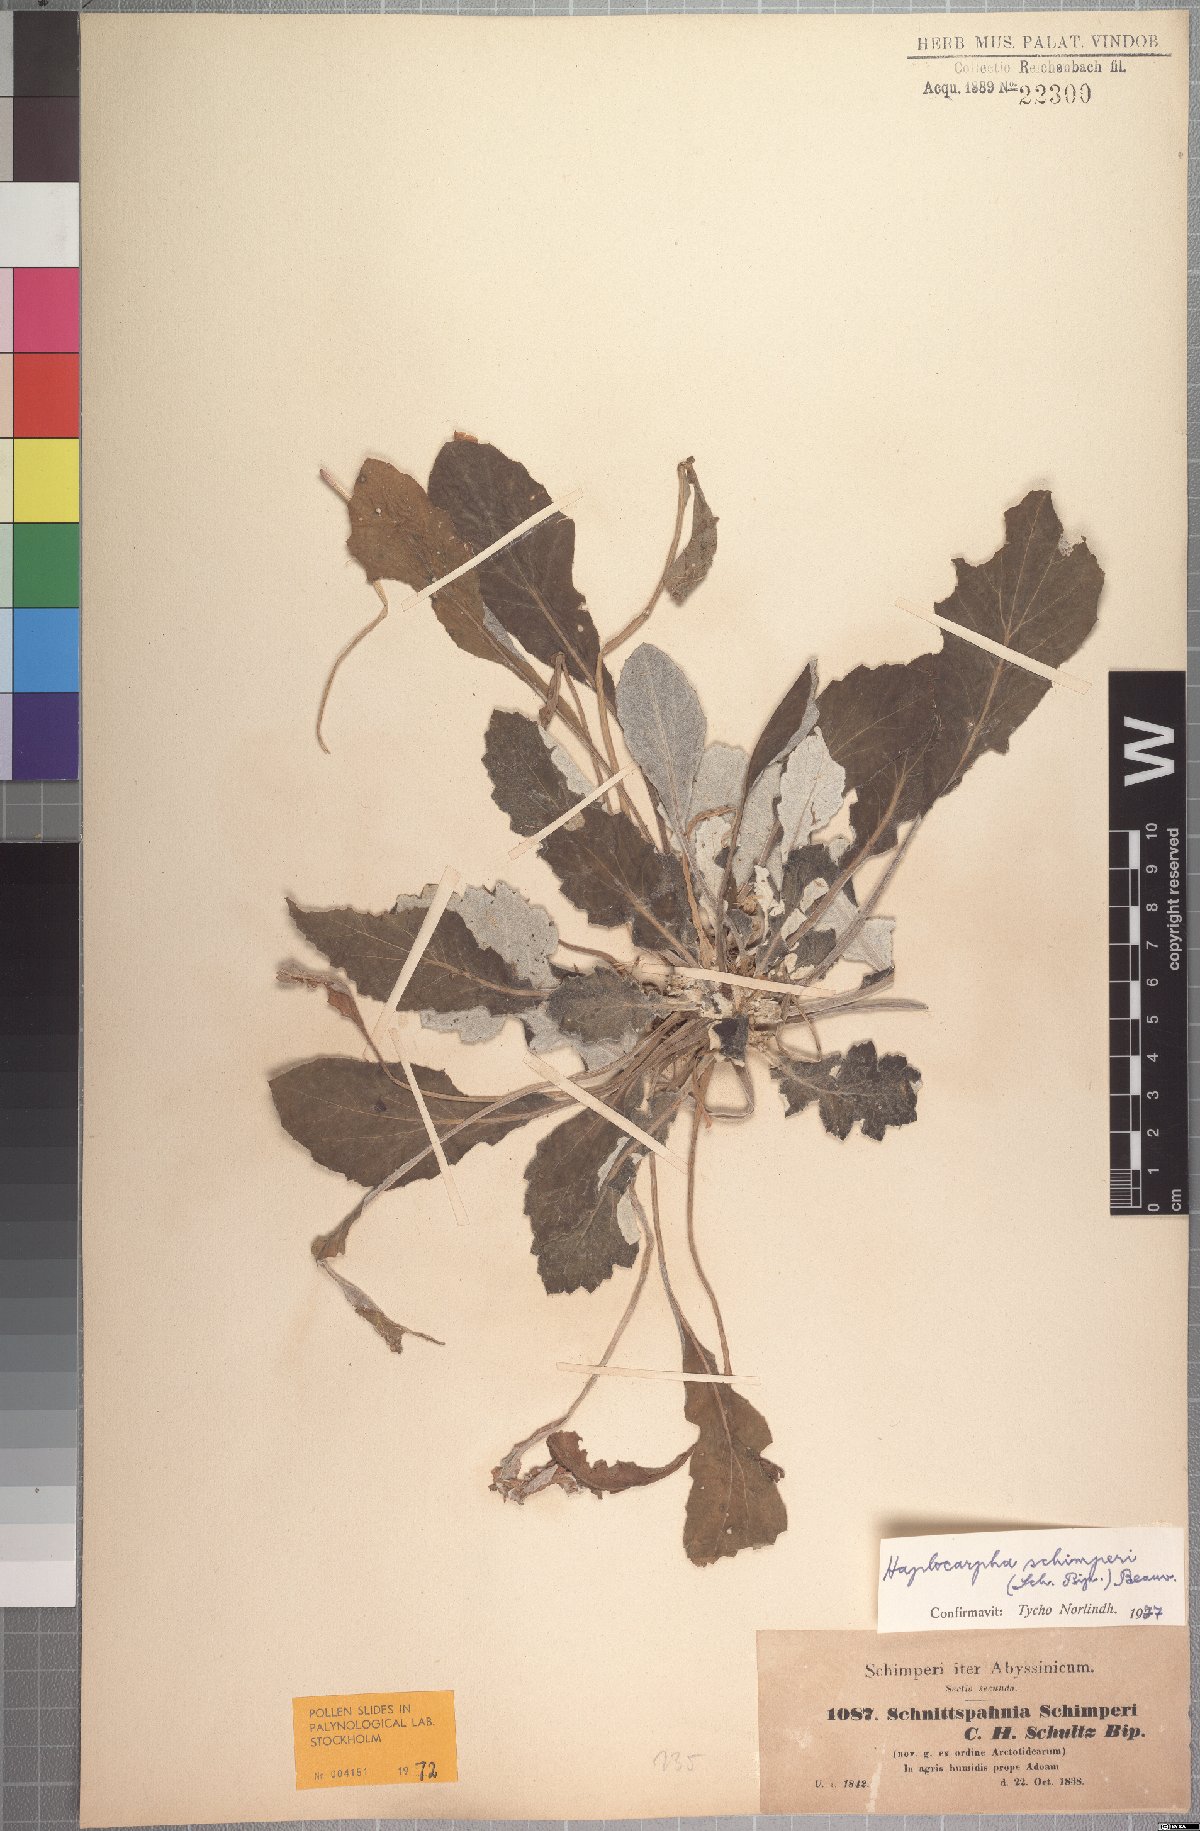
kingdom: Plantae
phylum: Tracheophyta
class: Magnoliopsida
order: Asterales
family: Asteraceae
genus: Haplocarpha
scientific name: Haplocarpha schimperi
